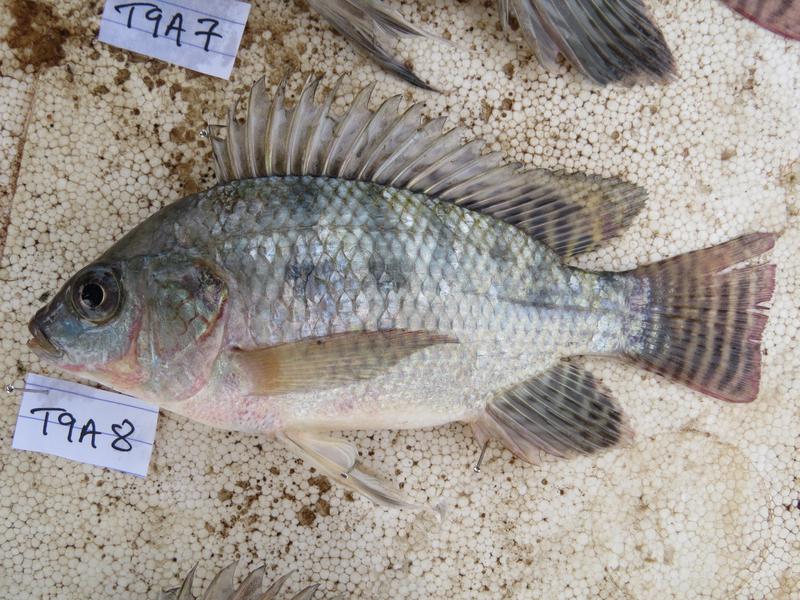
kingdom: Animalia
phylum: Chordata
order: Perciformes
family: Cichlidae
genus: Oreochromis
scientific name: Oreochromis
